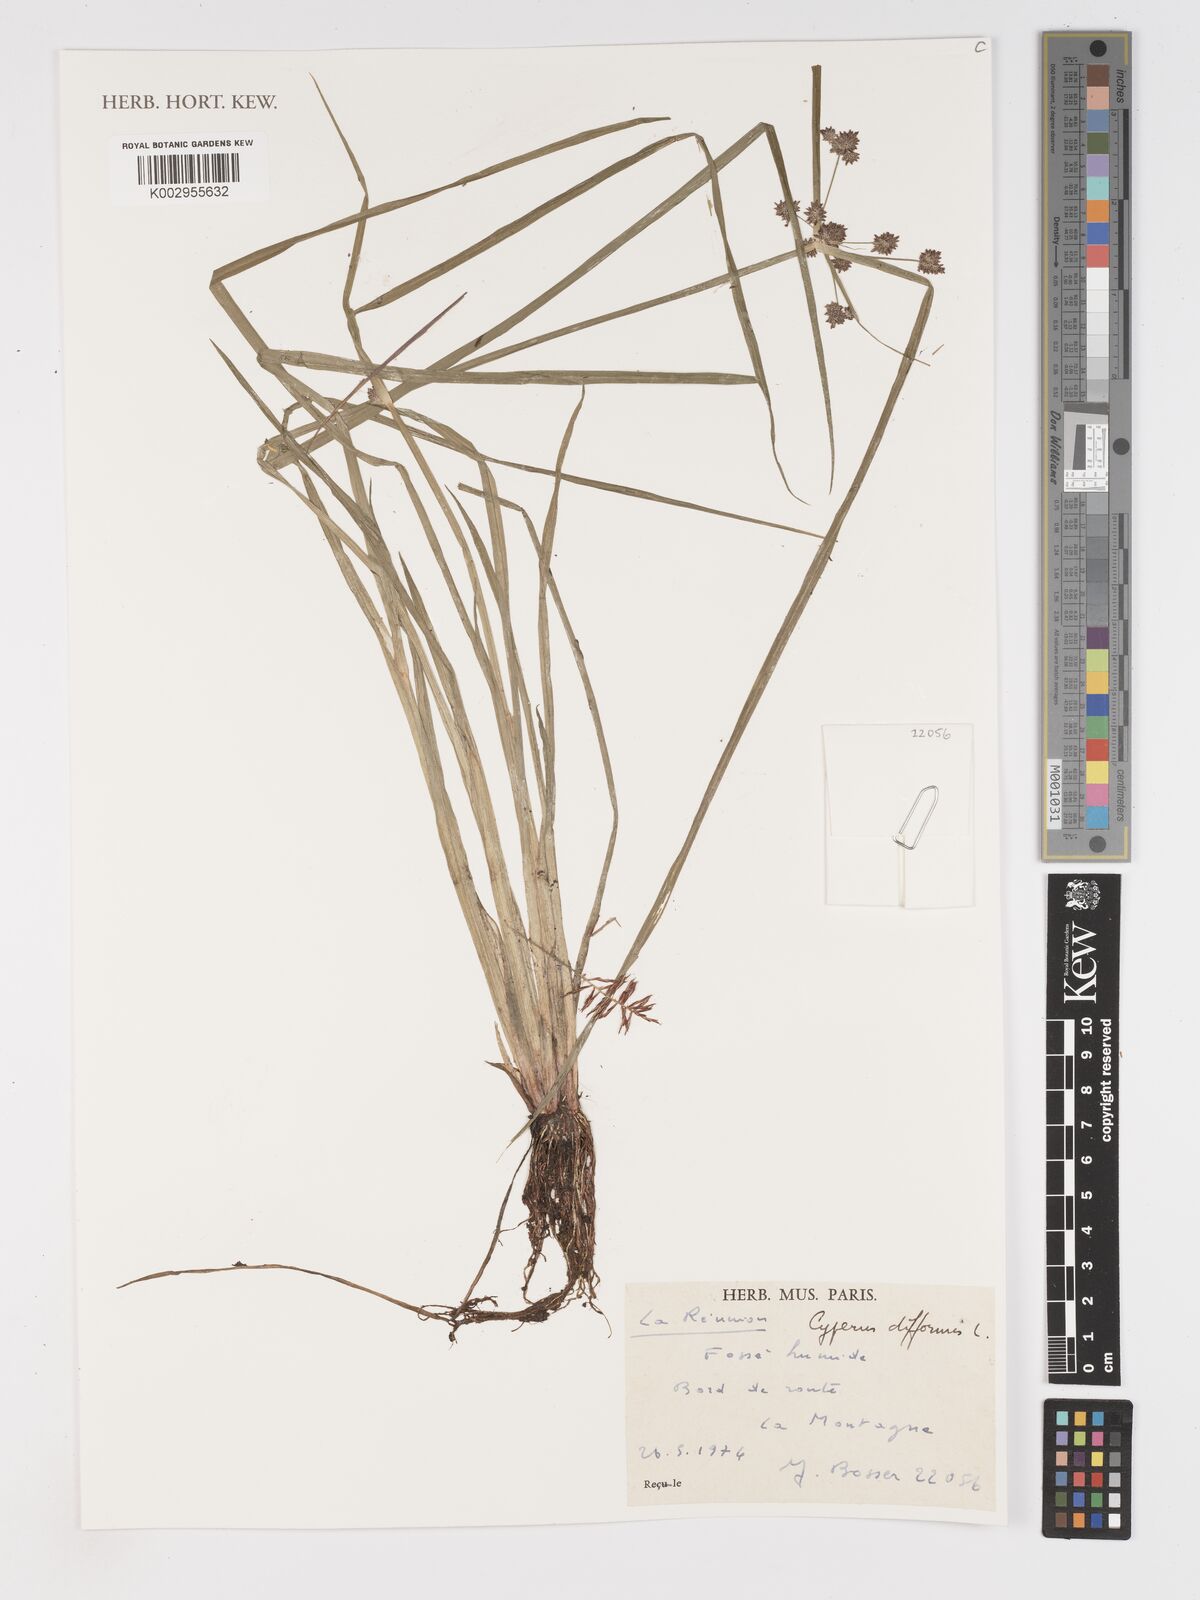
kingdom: Plantae
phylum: Tracheophyta
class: Liliopsida
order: Poales
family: Cyperaceae
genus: Cyperus
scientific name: Cyperus difformis
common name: Variable flatsedge
